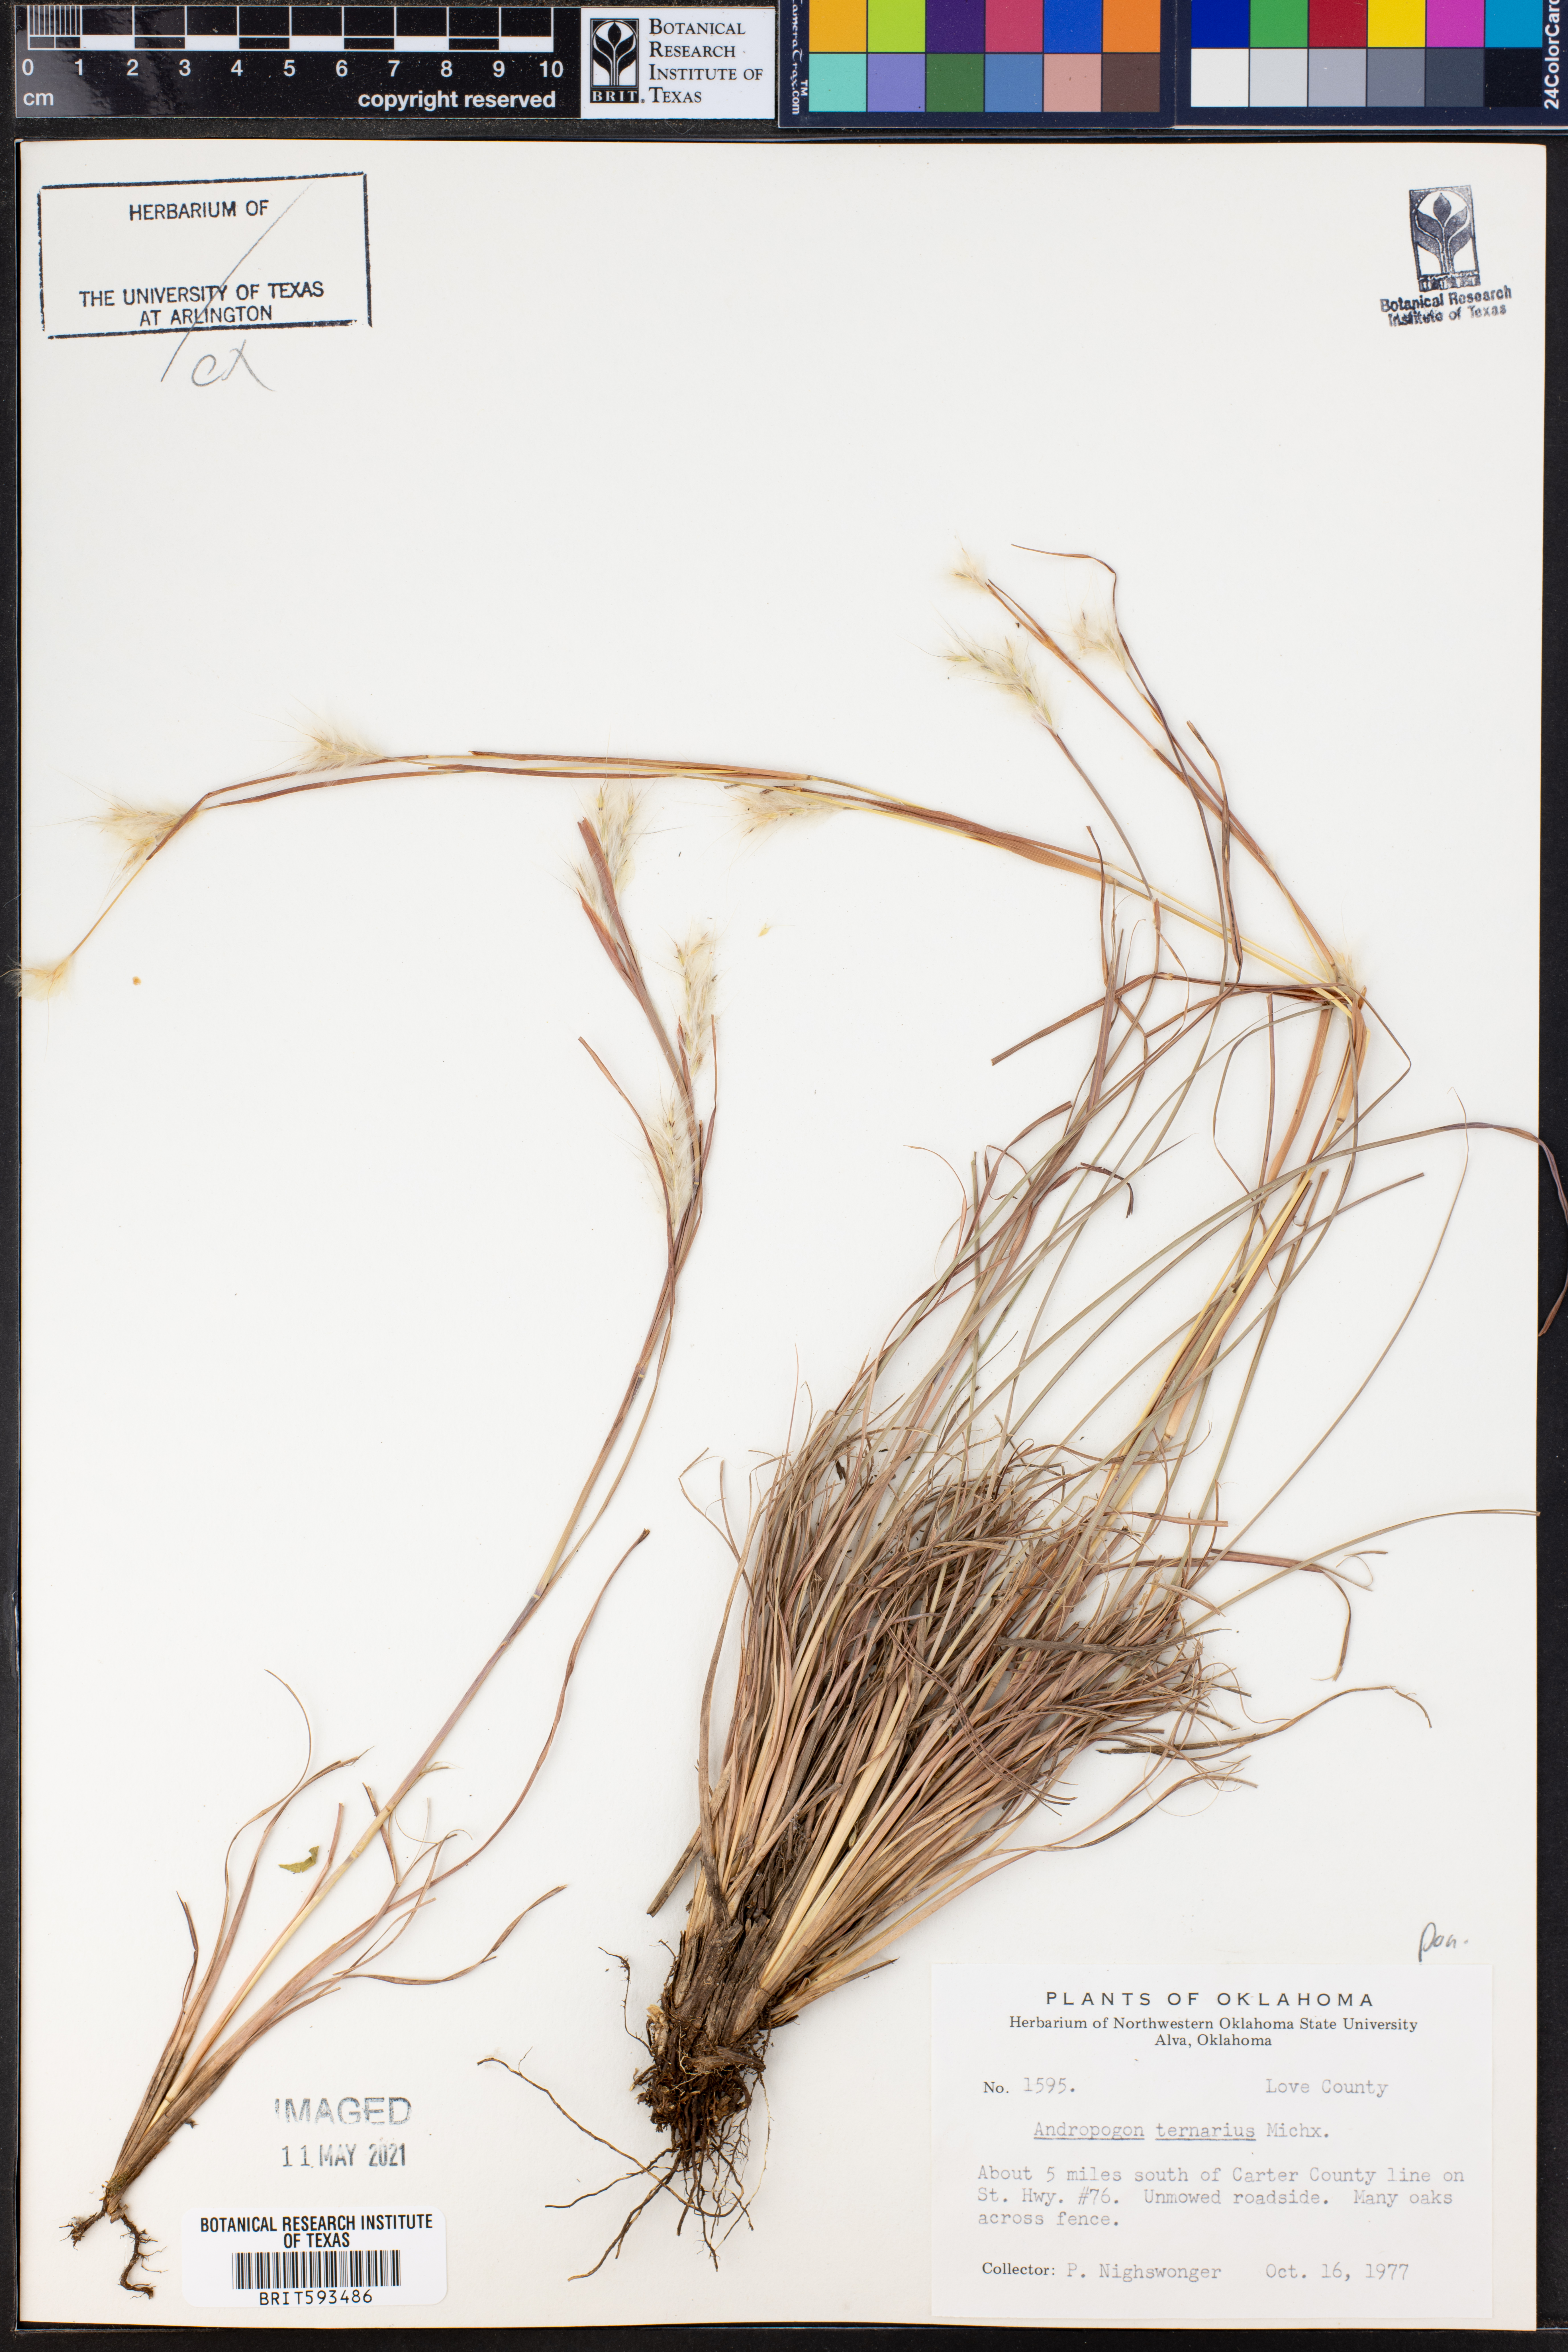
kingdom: Plantae
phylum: Tracheophyta
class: Liliopsida
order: Poales
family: Poaceae
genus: Andropogon
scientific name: Andropogon ternarius
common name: Split bluestem
